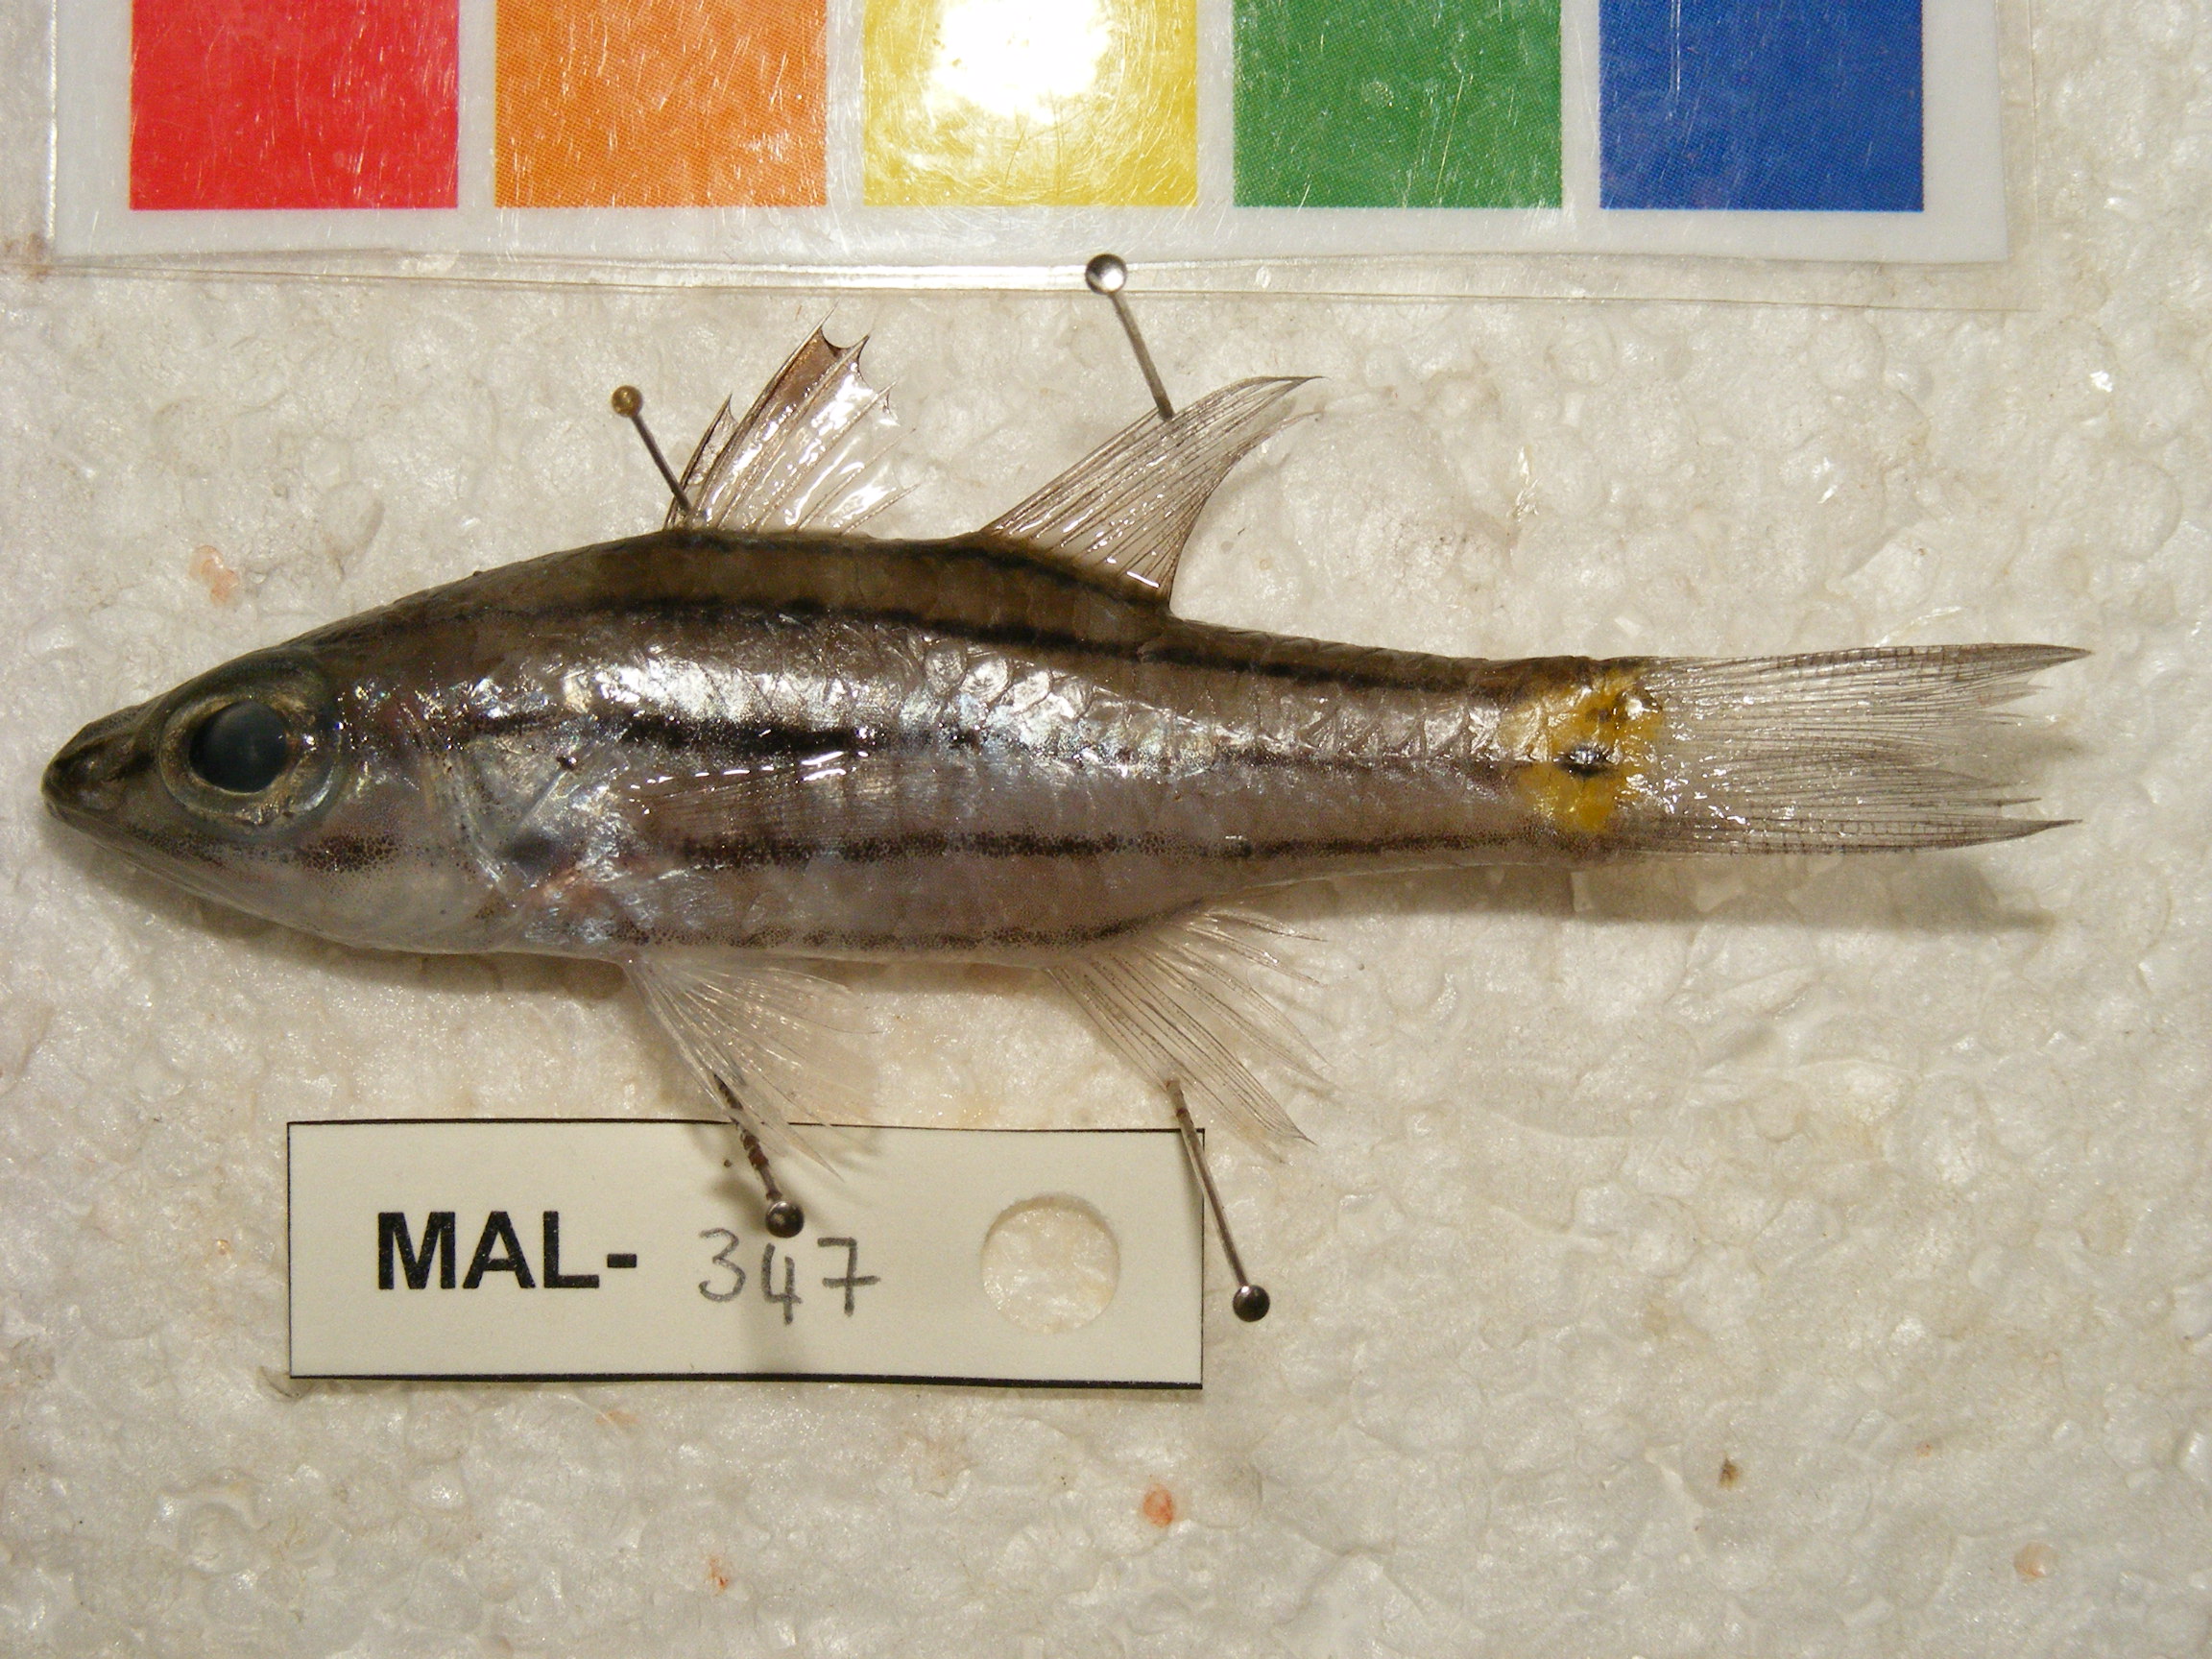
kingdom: Animalia
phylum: Chordata
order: Perciformes
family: Apogonidae
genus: Cheilodipterus
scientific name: Cheilodipterus quinquelineatus
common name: Five-lined cardinalfish
